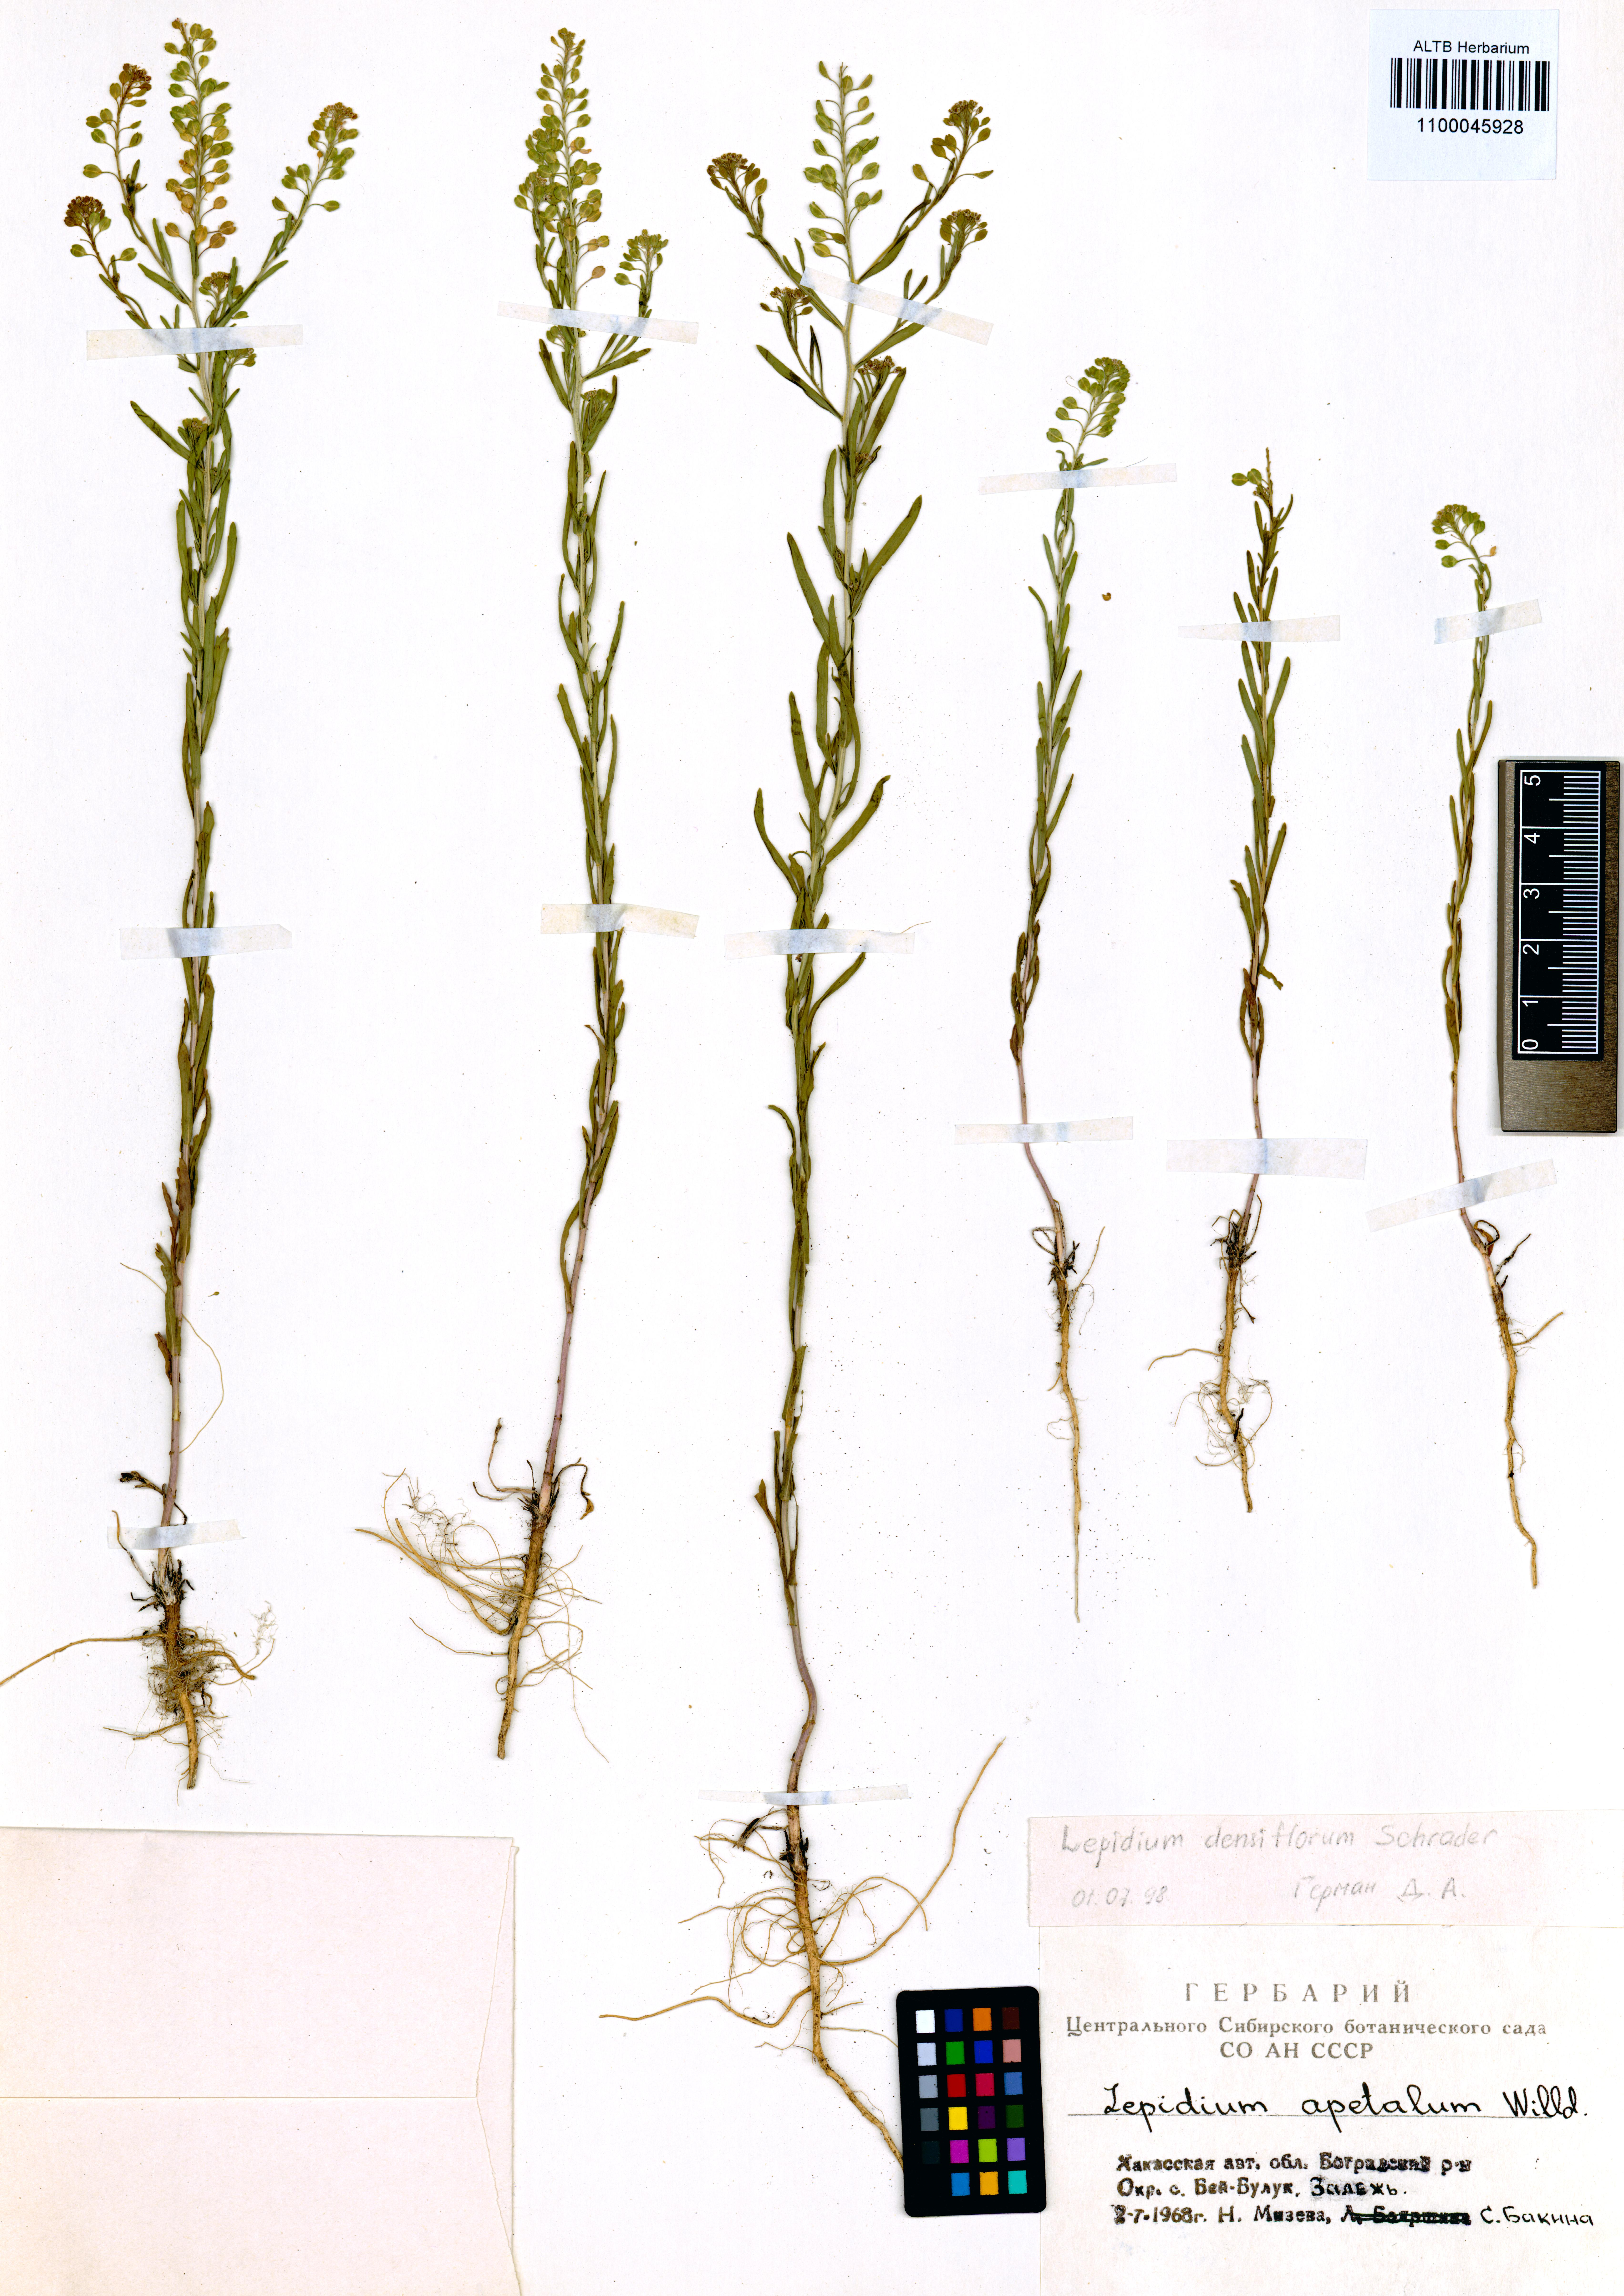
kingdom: Plantae
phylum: Tracheophyta
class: Magnoliopsida
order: Brassicales
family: Brassicaceae
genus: Lepidium
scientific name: Lepidium densiflorum
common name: Miner's pepperwort
